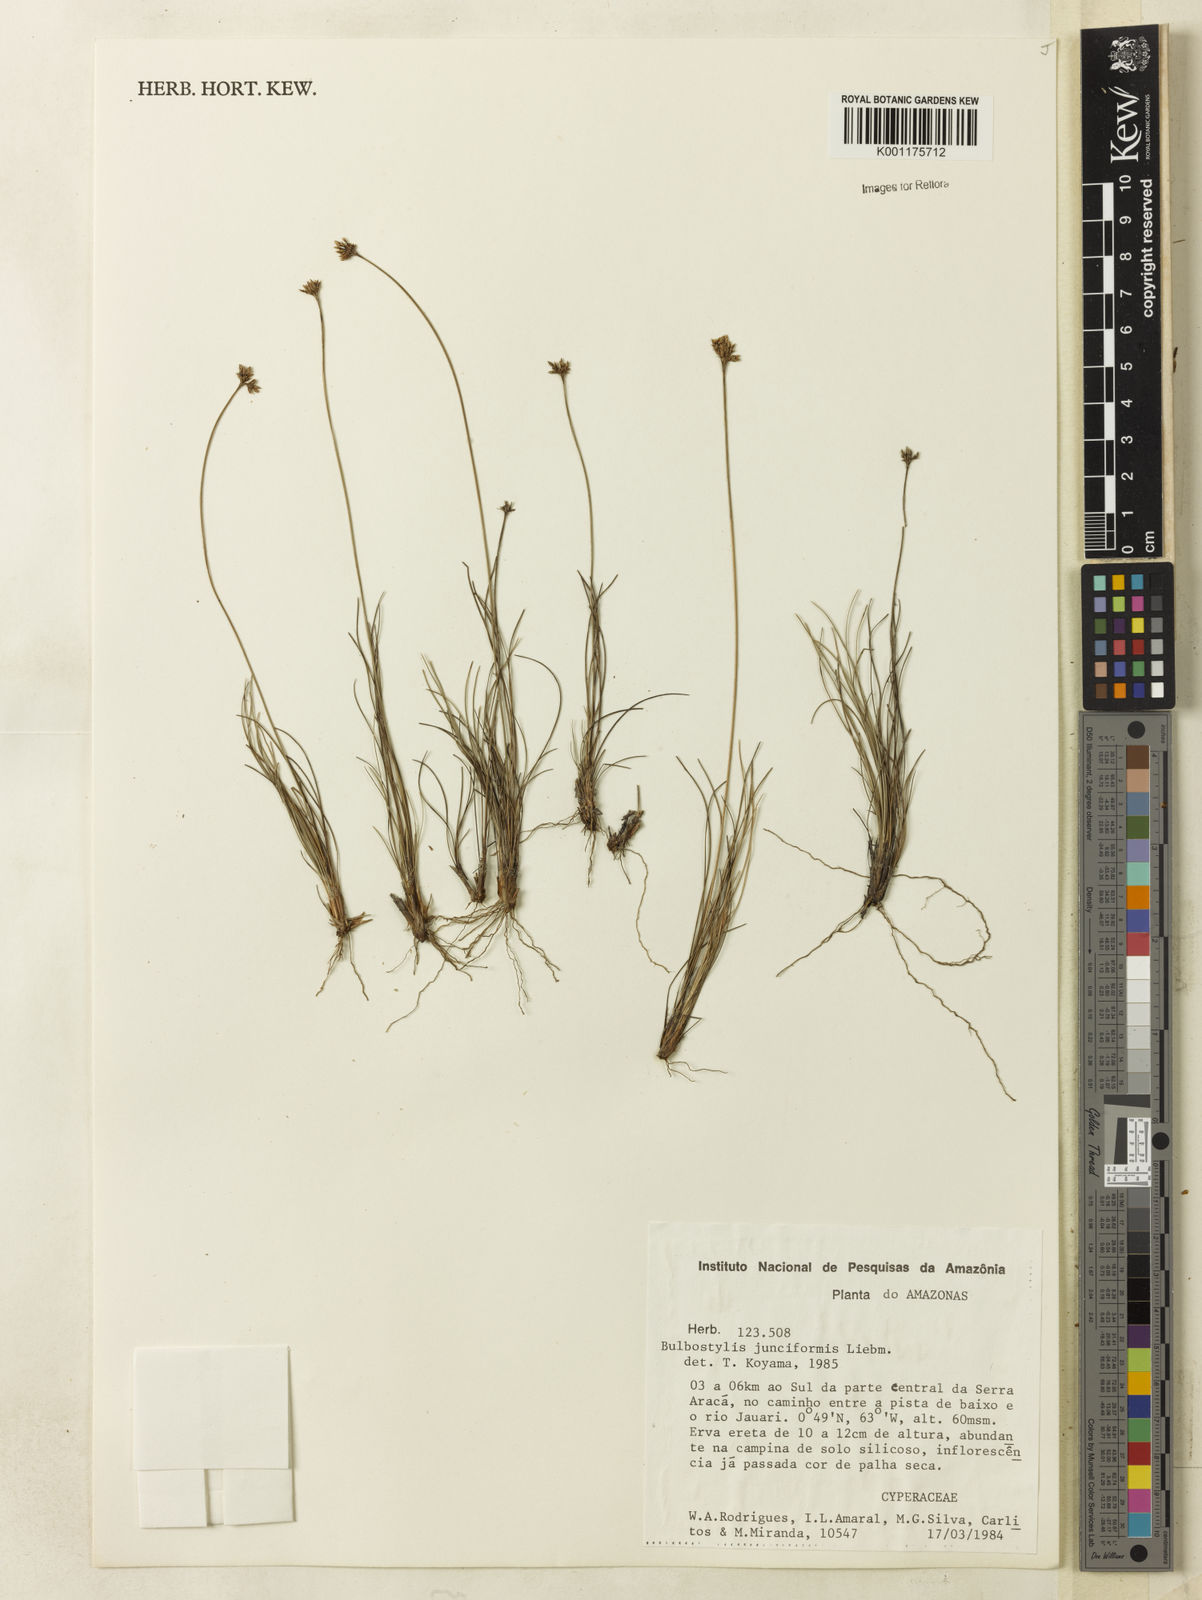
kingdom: Plantae
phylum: Tracheophyta
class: Liliopsida
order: Poales
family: Cyperaceae
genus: Bulbostylis
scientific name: Bulbostylis junciformis
